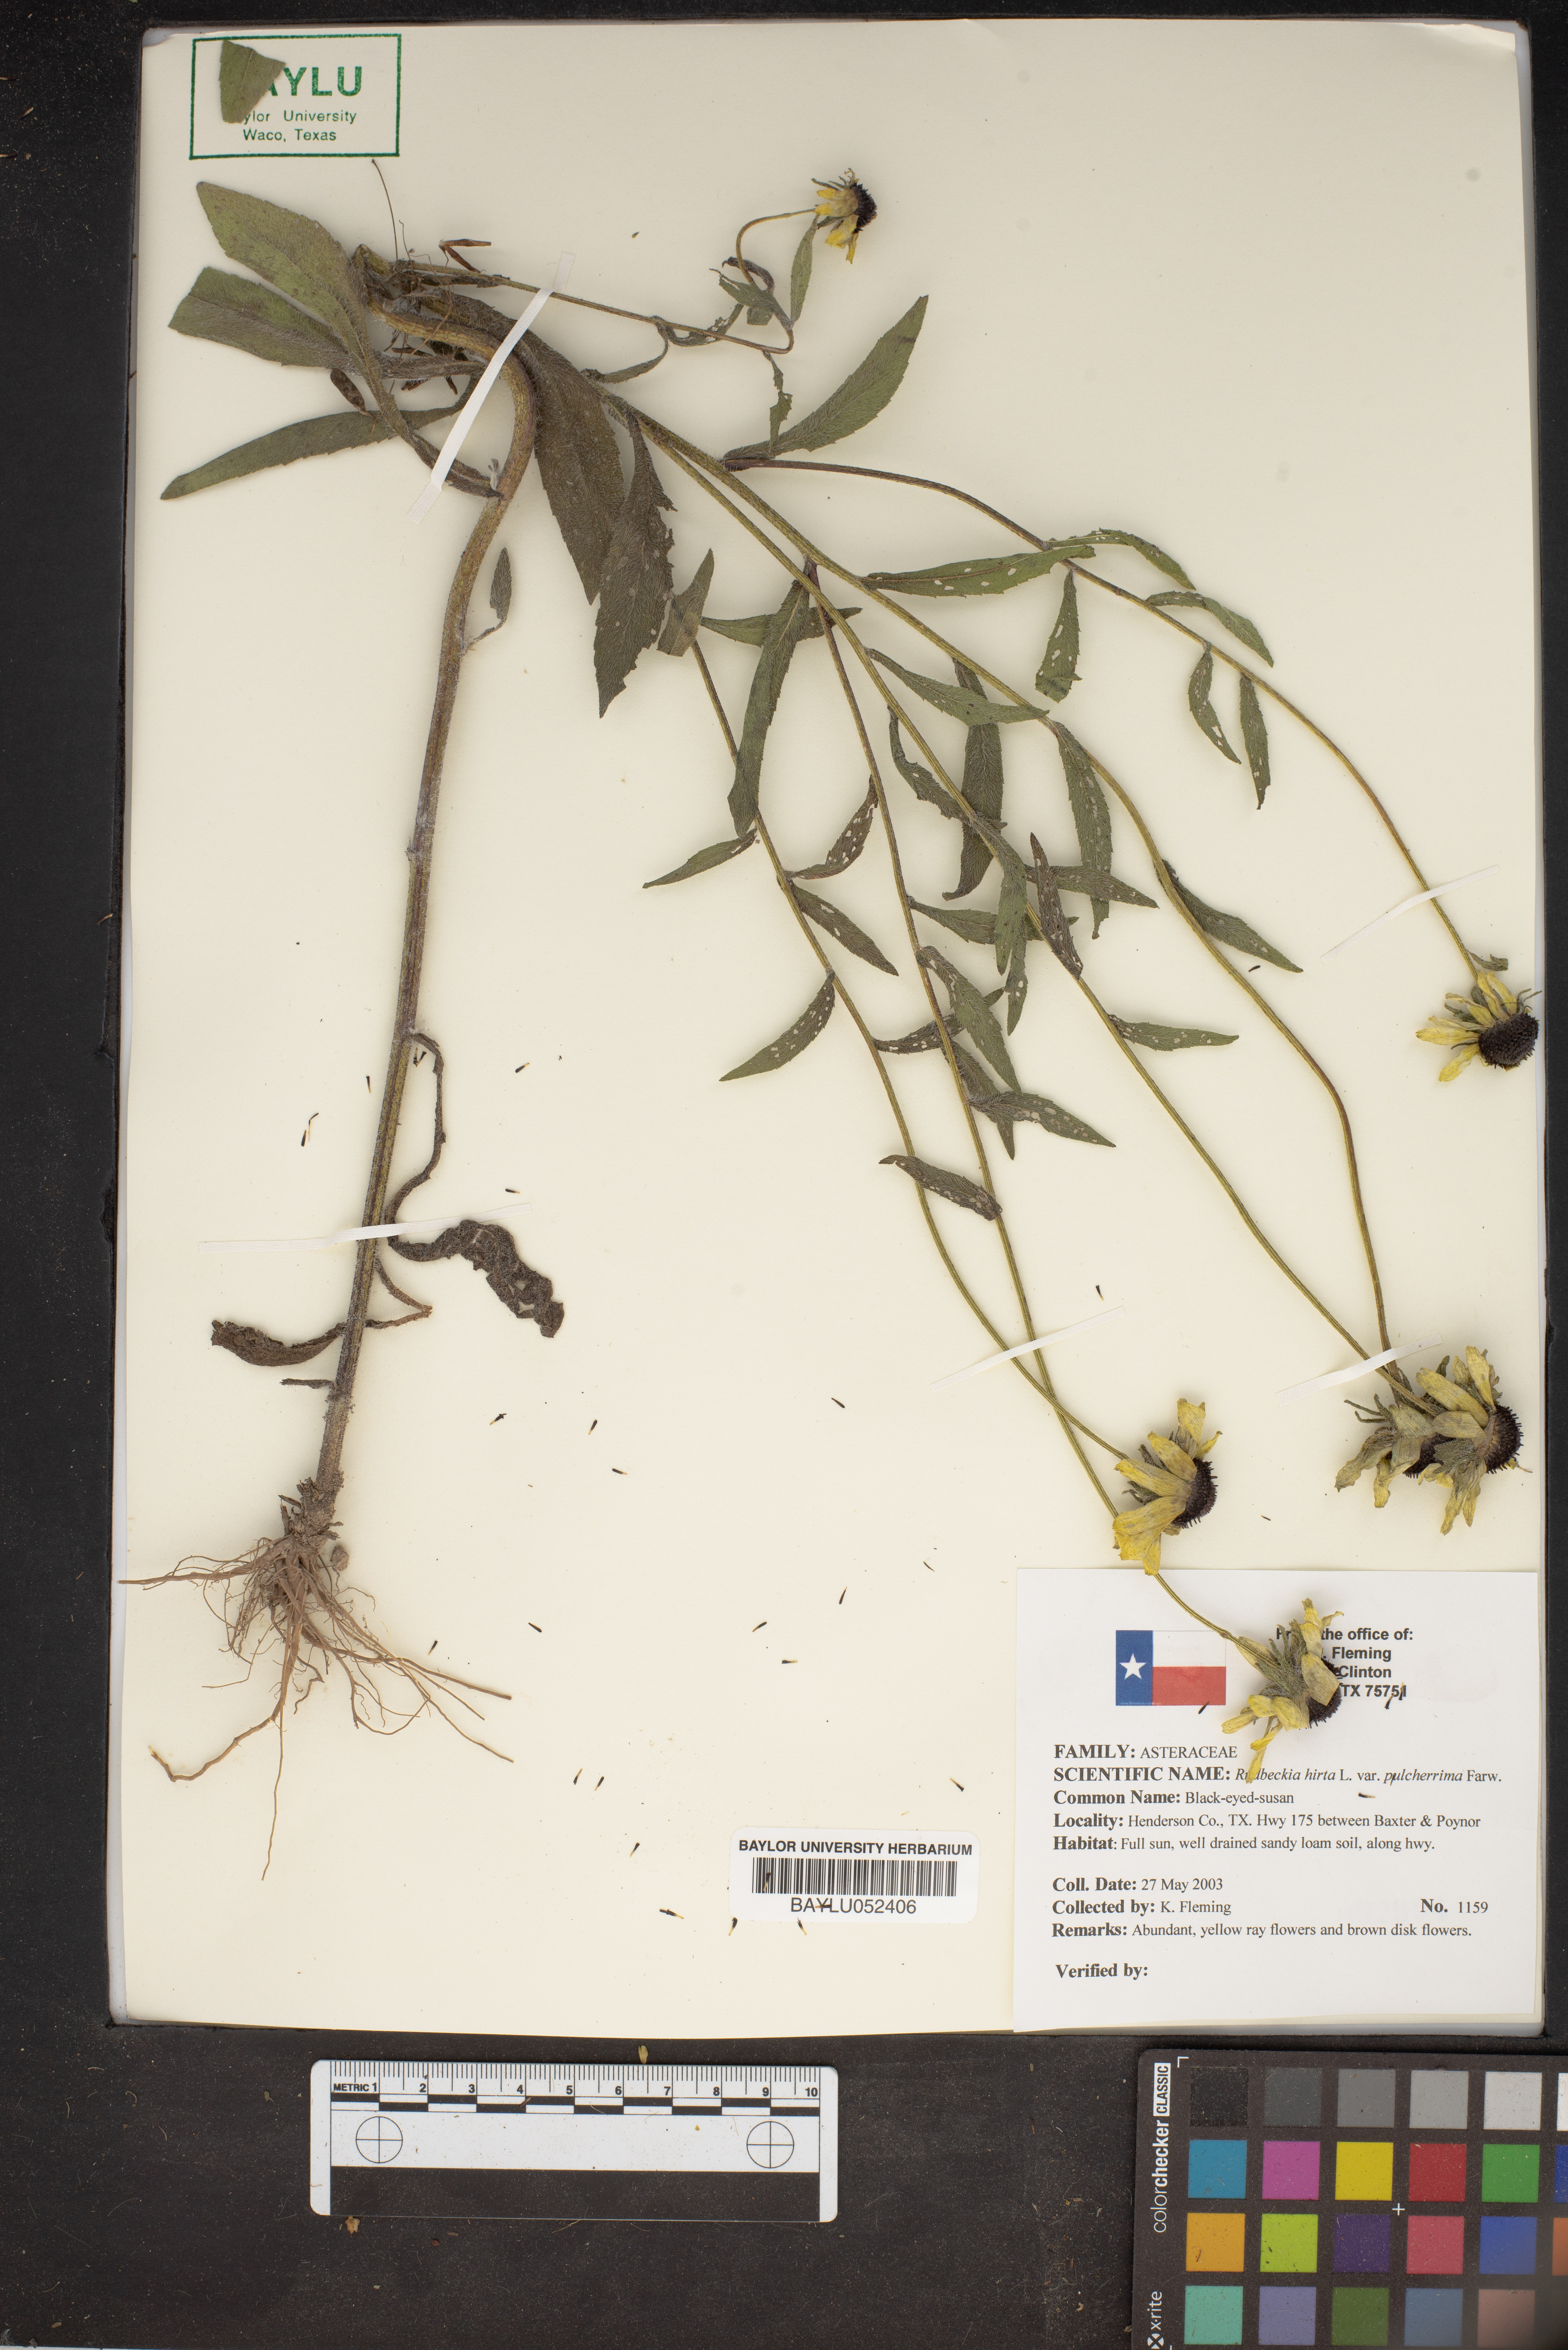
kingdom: Plantae
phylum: Tracheophyta
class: Magnoliopsida
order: Asterales
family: Asteraceae
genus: Rudbeckia
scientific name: Rudbeckia hirta
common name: Black-eyed-susan
